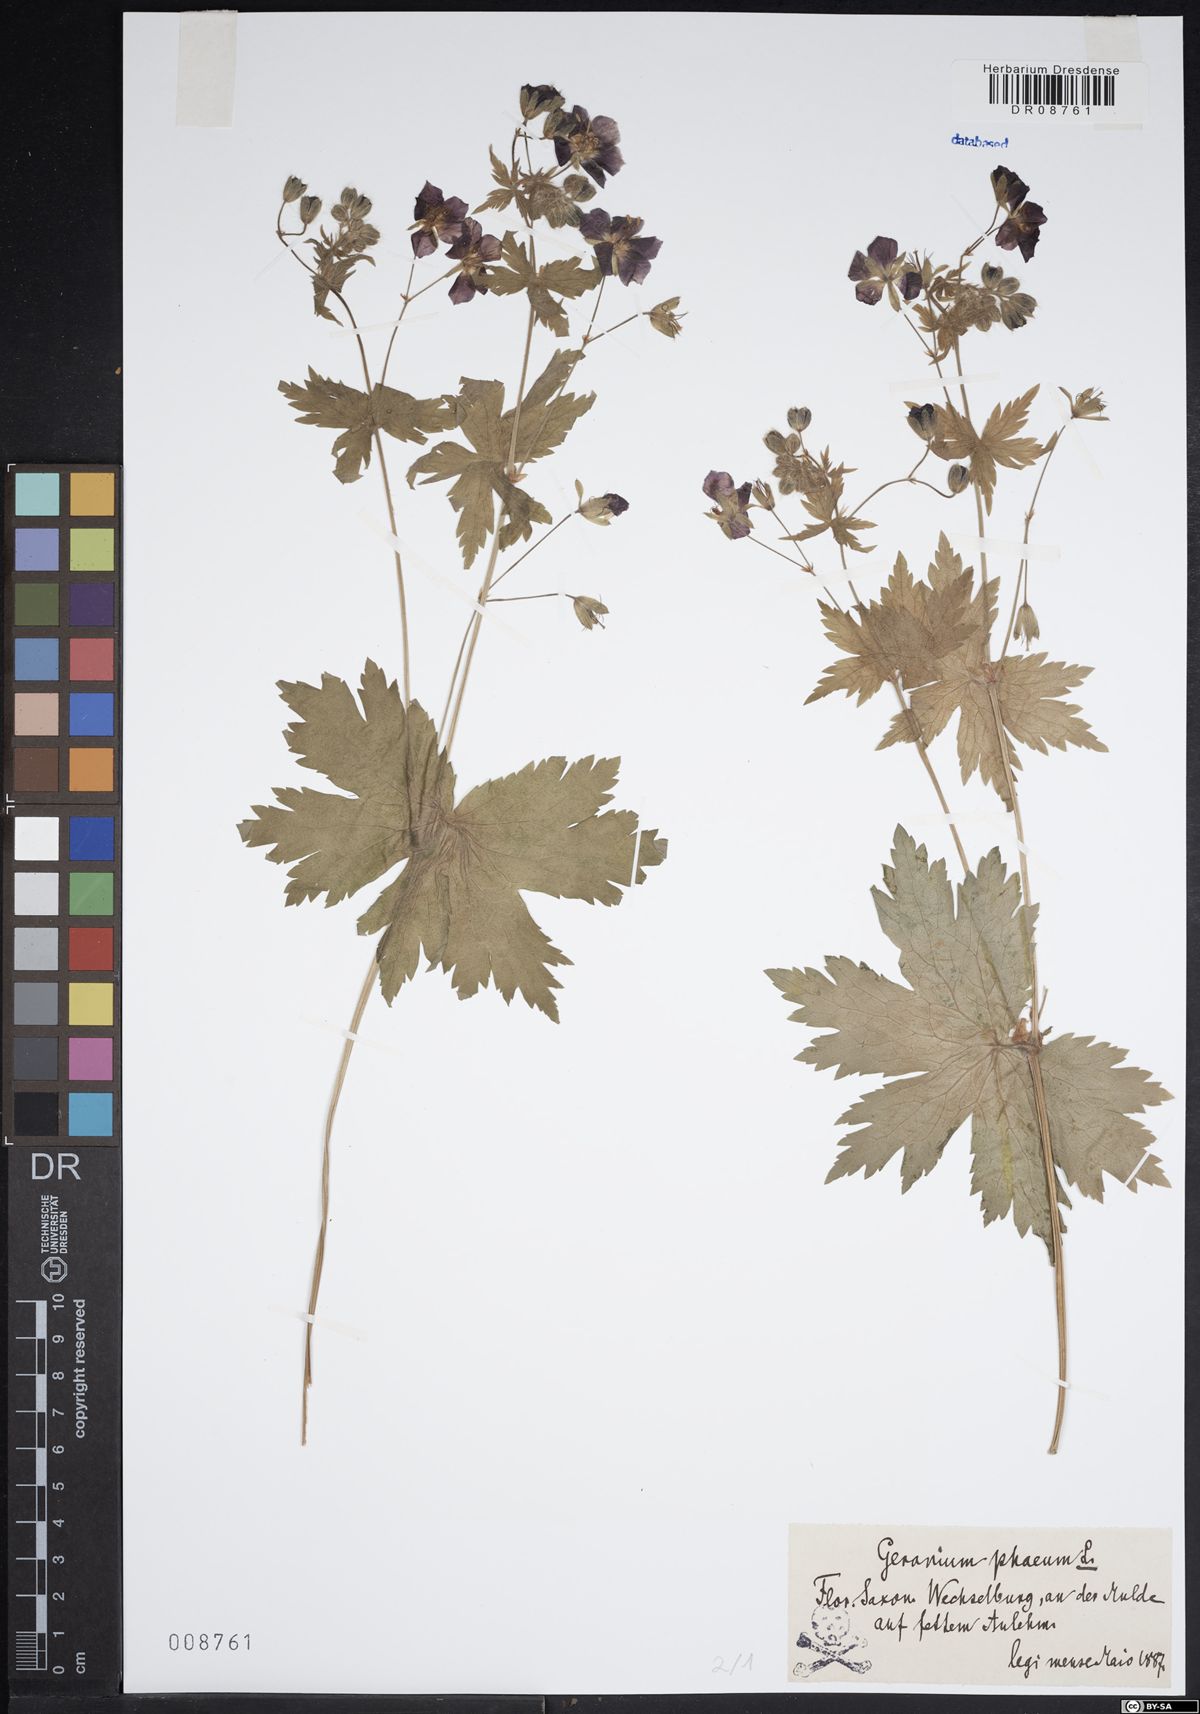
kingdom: Plantae
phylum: Tracheophyta
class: Magnoliopsida
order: Geraniales
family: Geraniaceae
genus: Geranium
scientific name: Geranium phaeum
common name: Dusky crane's-bill
